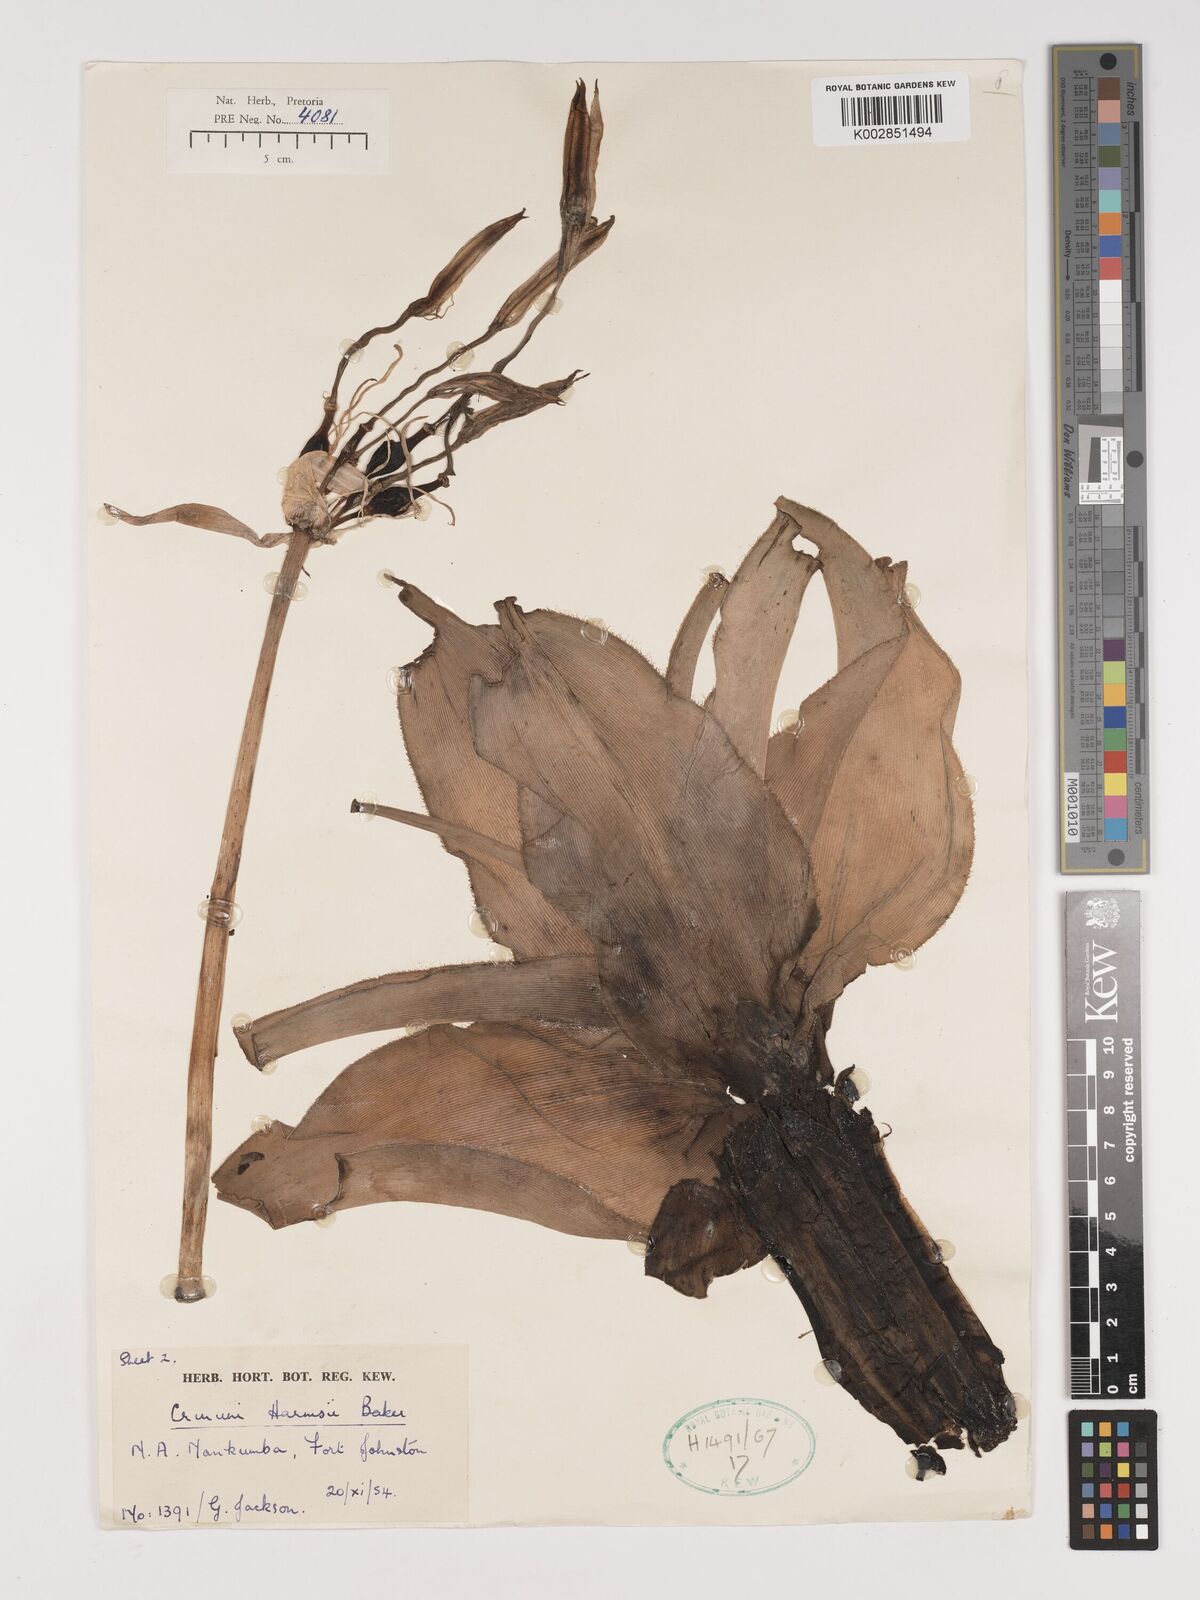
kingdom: Plantae
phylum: Tracheophyta
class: Liliopsida
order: Asparagales
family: Amaryllidaceae
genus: Crinum
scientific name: Crinum stuhlmannii
